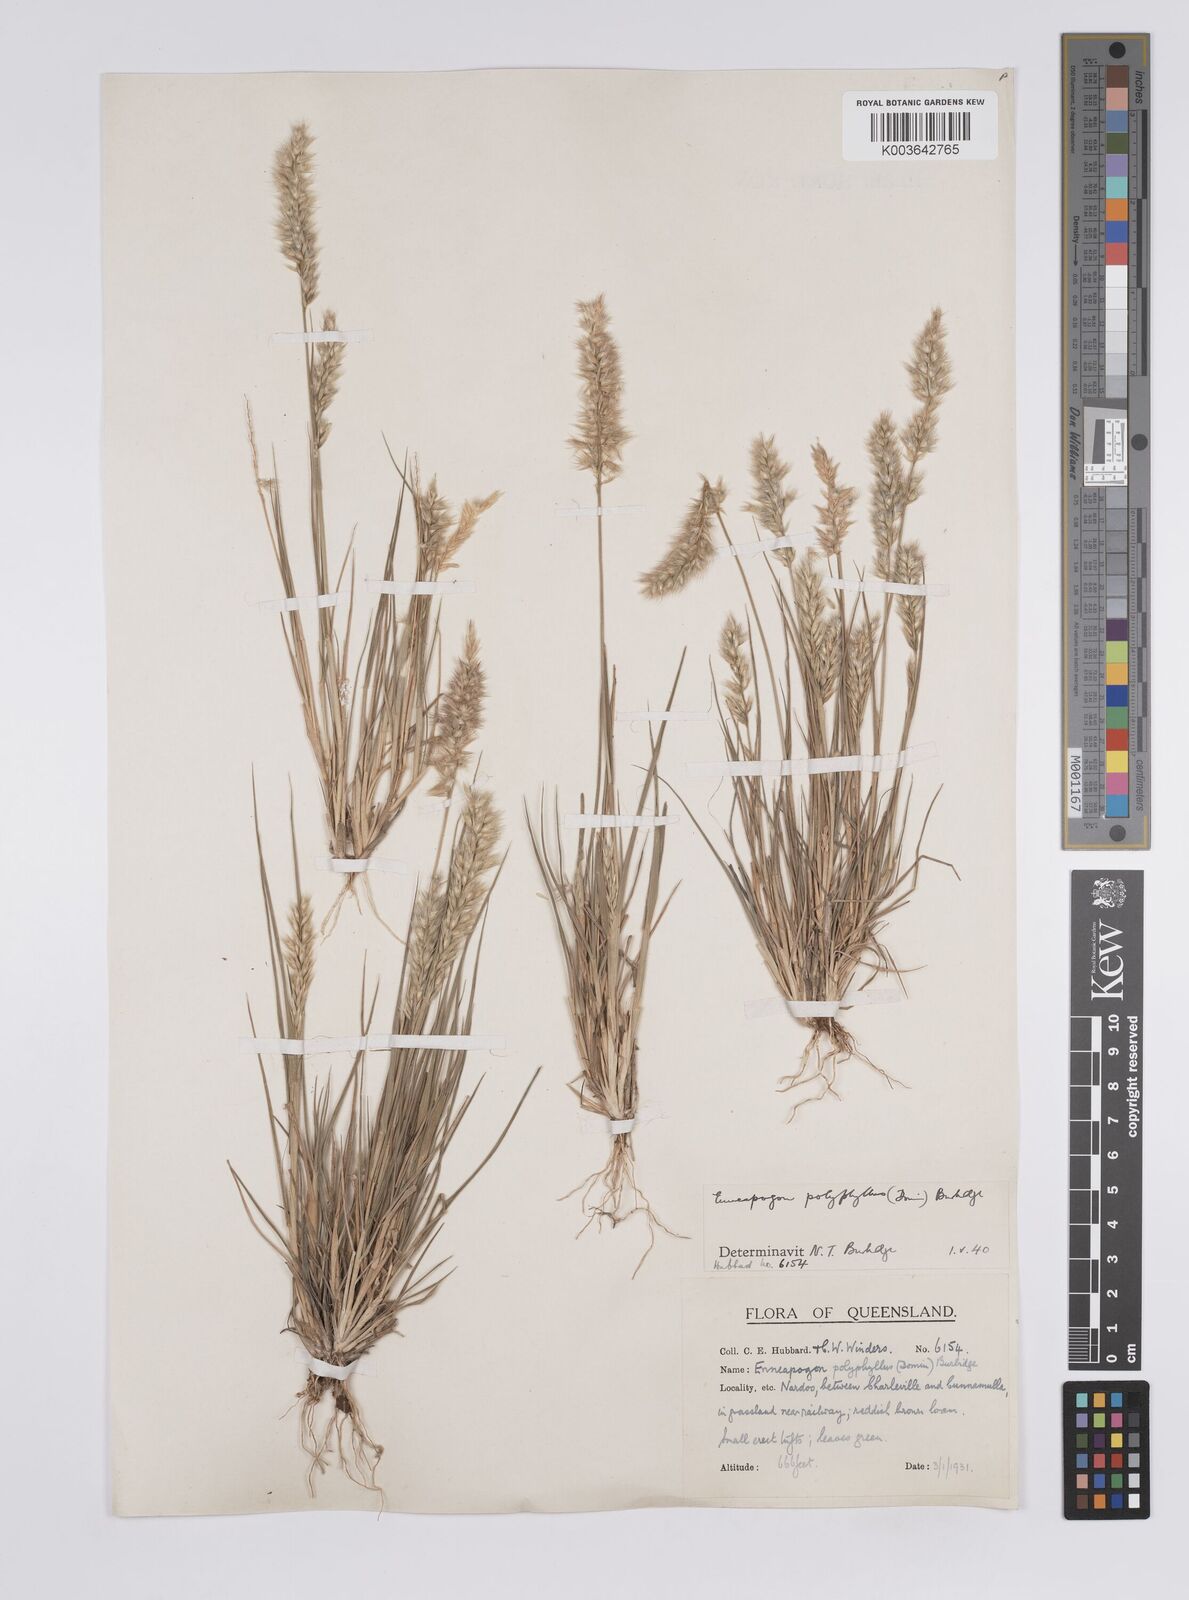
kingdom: Plantae
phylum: Tracheophyta
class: Liliopsida
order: Poales
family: Poaceae
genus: Enneapogon
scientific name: Enneapogon polyphyllus
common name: Leafy nineawn
